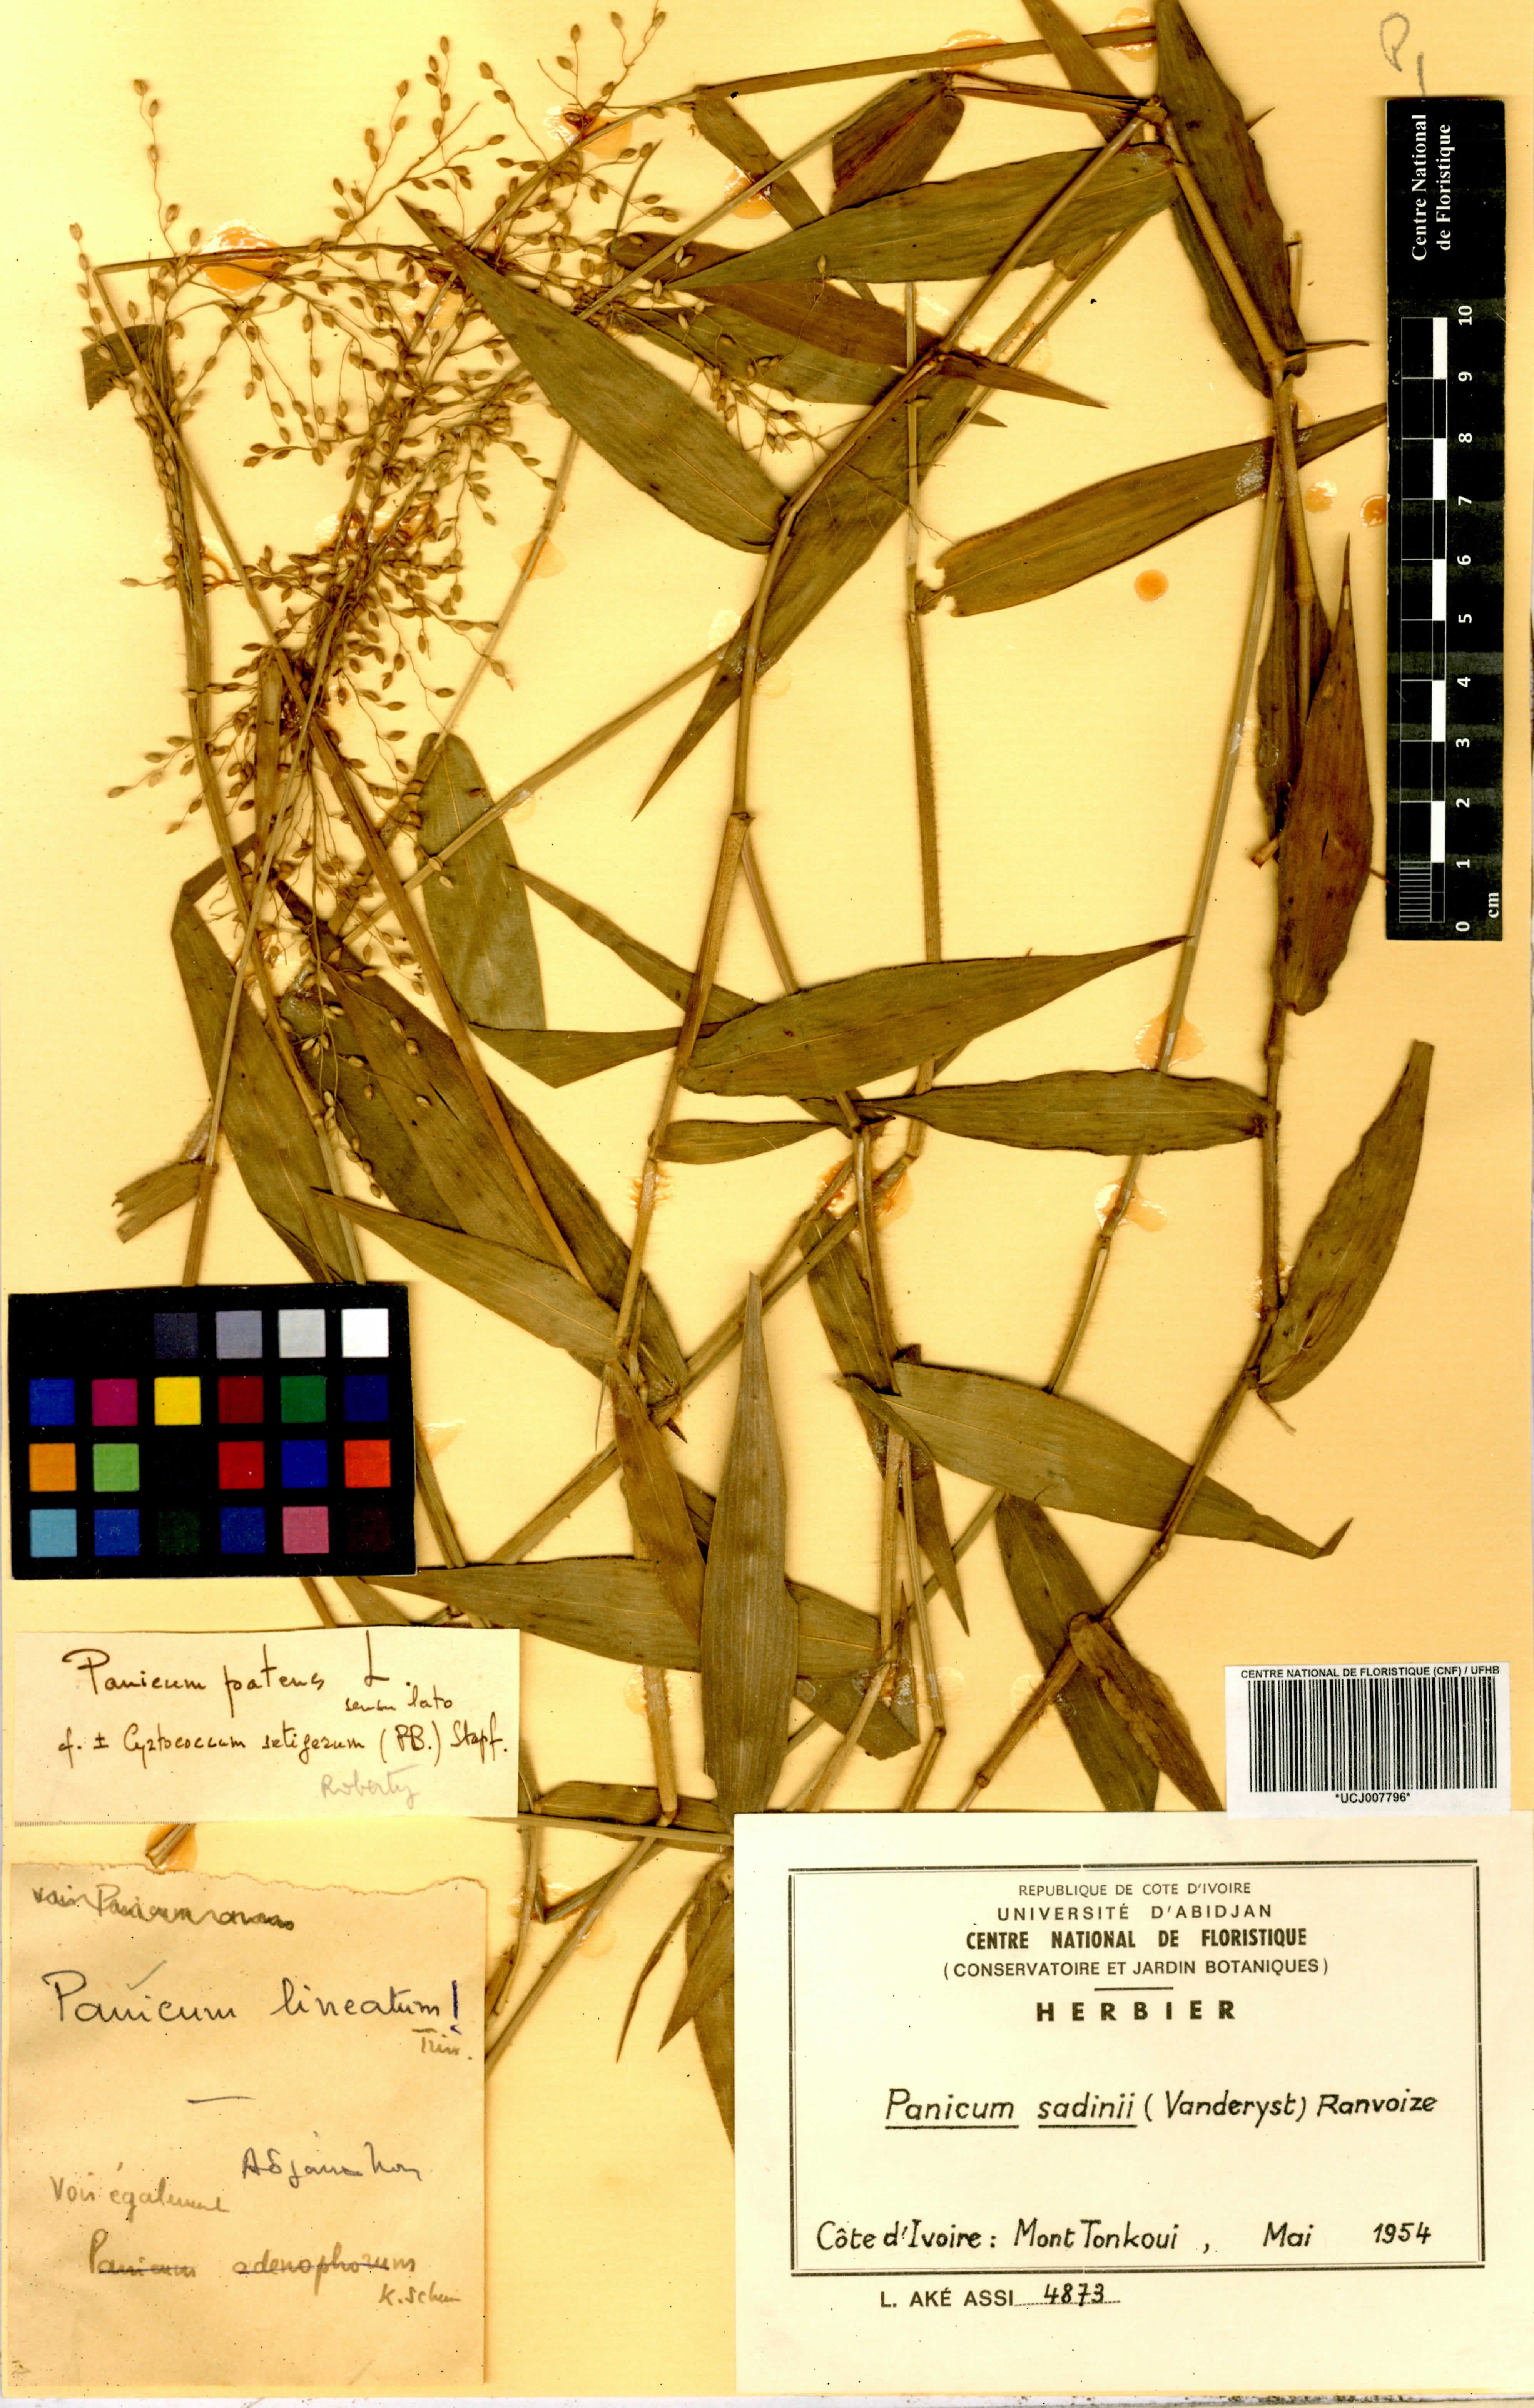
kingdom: Plantae
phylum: Tracheophyta
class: Liliopsida
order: Poales
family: Poaceae
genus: Adenochloa
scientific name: Adenochloa sadinii
